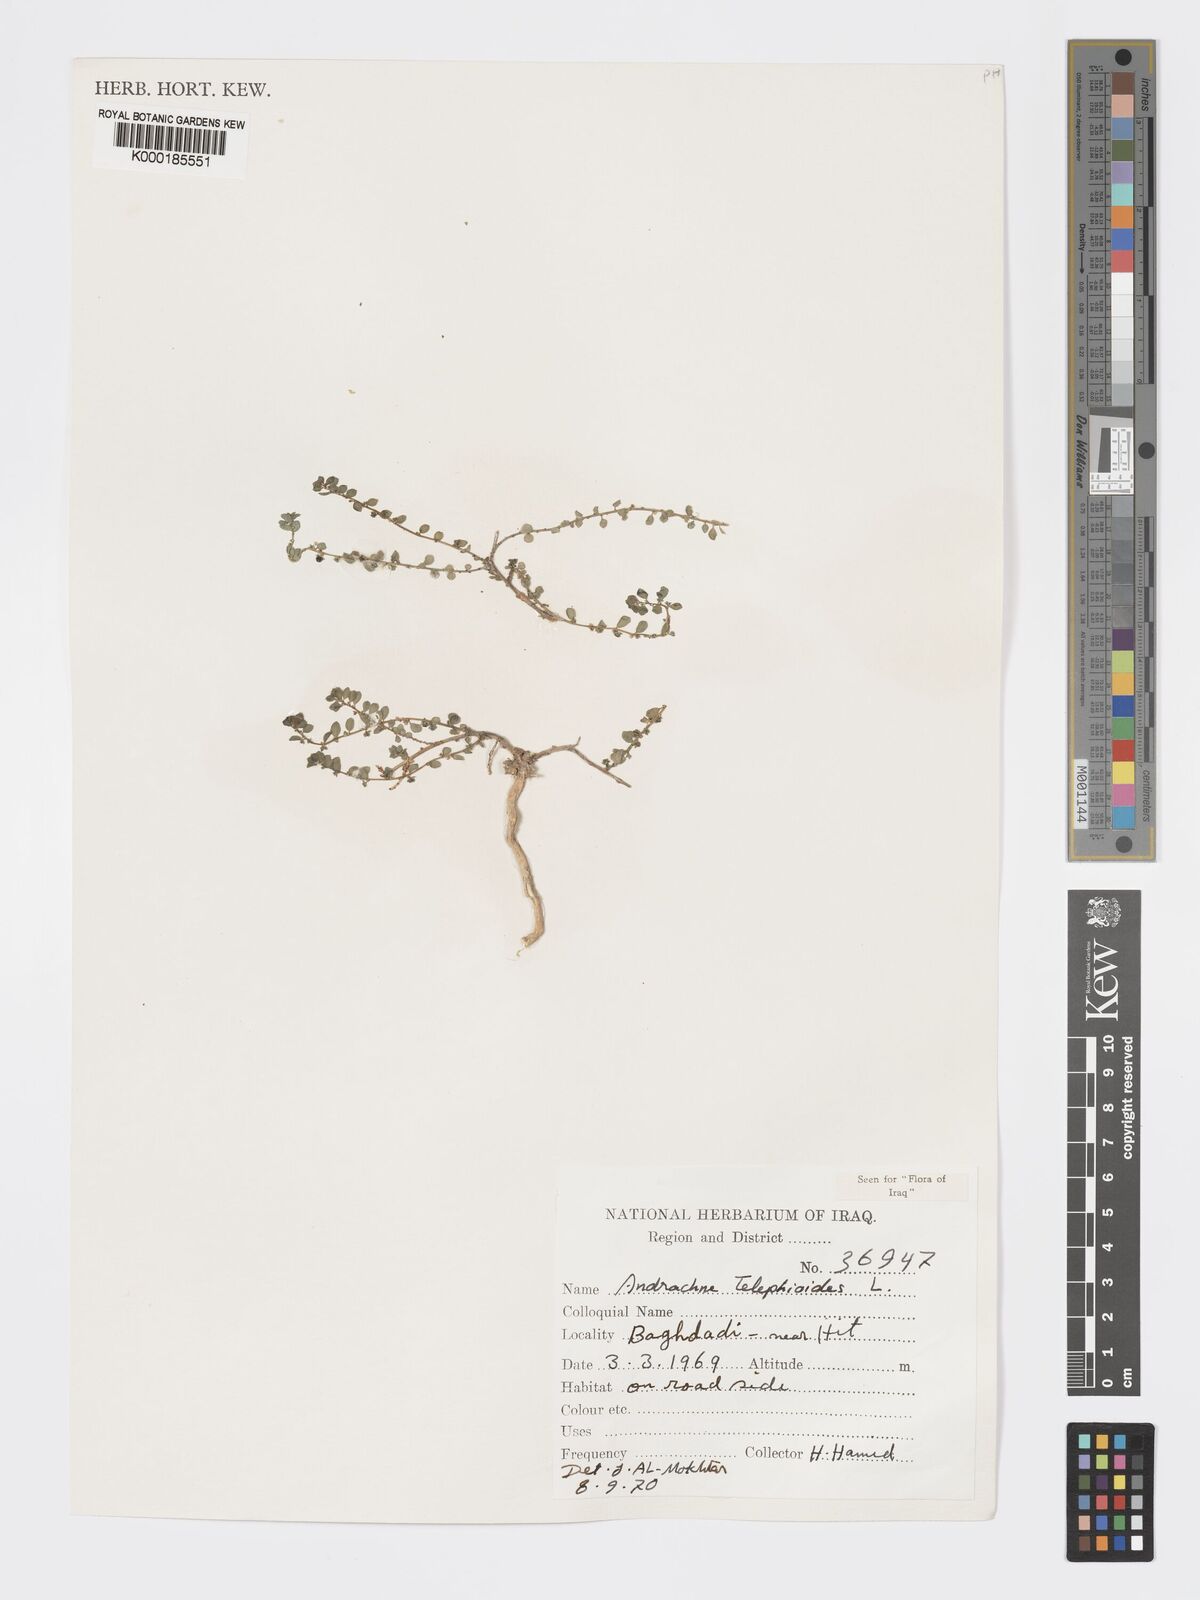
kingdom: Plantae
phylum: Tracheophyta
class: Magnoliopsida
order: Malpighiales
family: Phyllanthaceae
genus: Andrachne
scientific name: Andrachne telephioides
